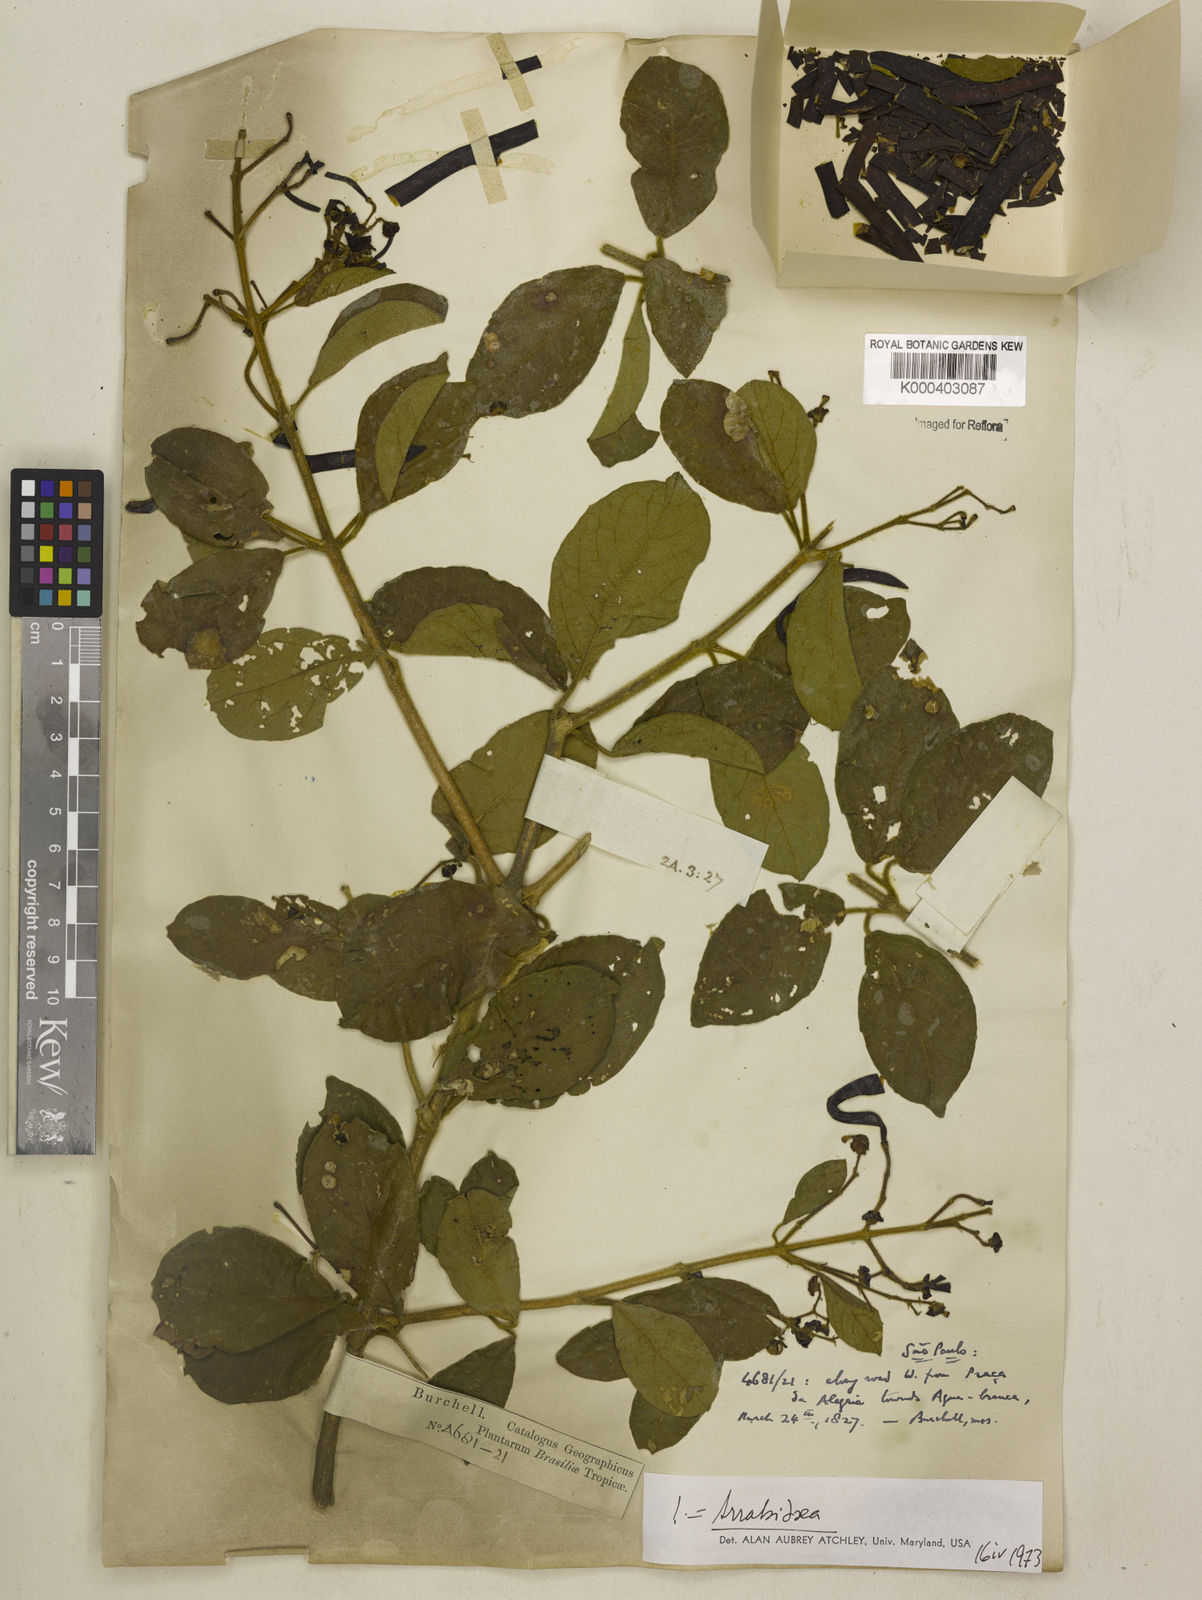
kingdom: Plantae
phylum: Tracheophyta
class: Magnoliopsida
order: Lamiales
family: Bignoniaceae
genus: Fridericia
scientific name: Fridericia samydoides
